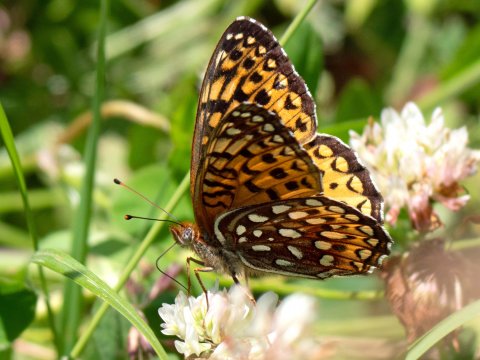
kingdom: Animalia
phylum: Arthropoda
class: Insecta
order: Lepidoptera
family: Nymphalidae
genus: Speyeria
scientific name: Speyeria atlantis
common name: Atlantis Fritillary
